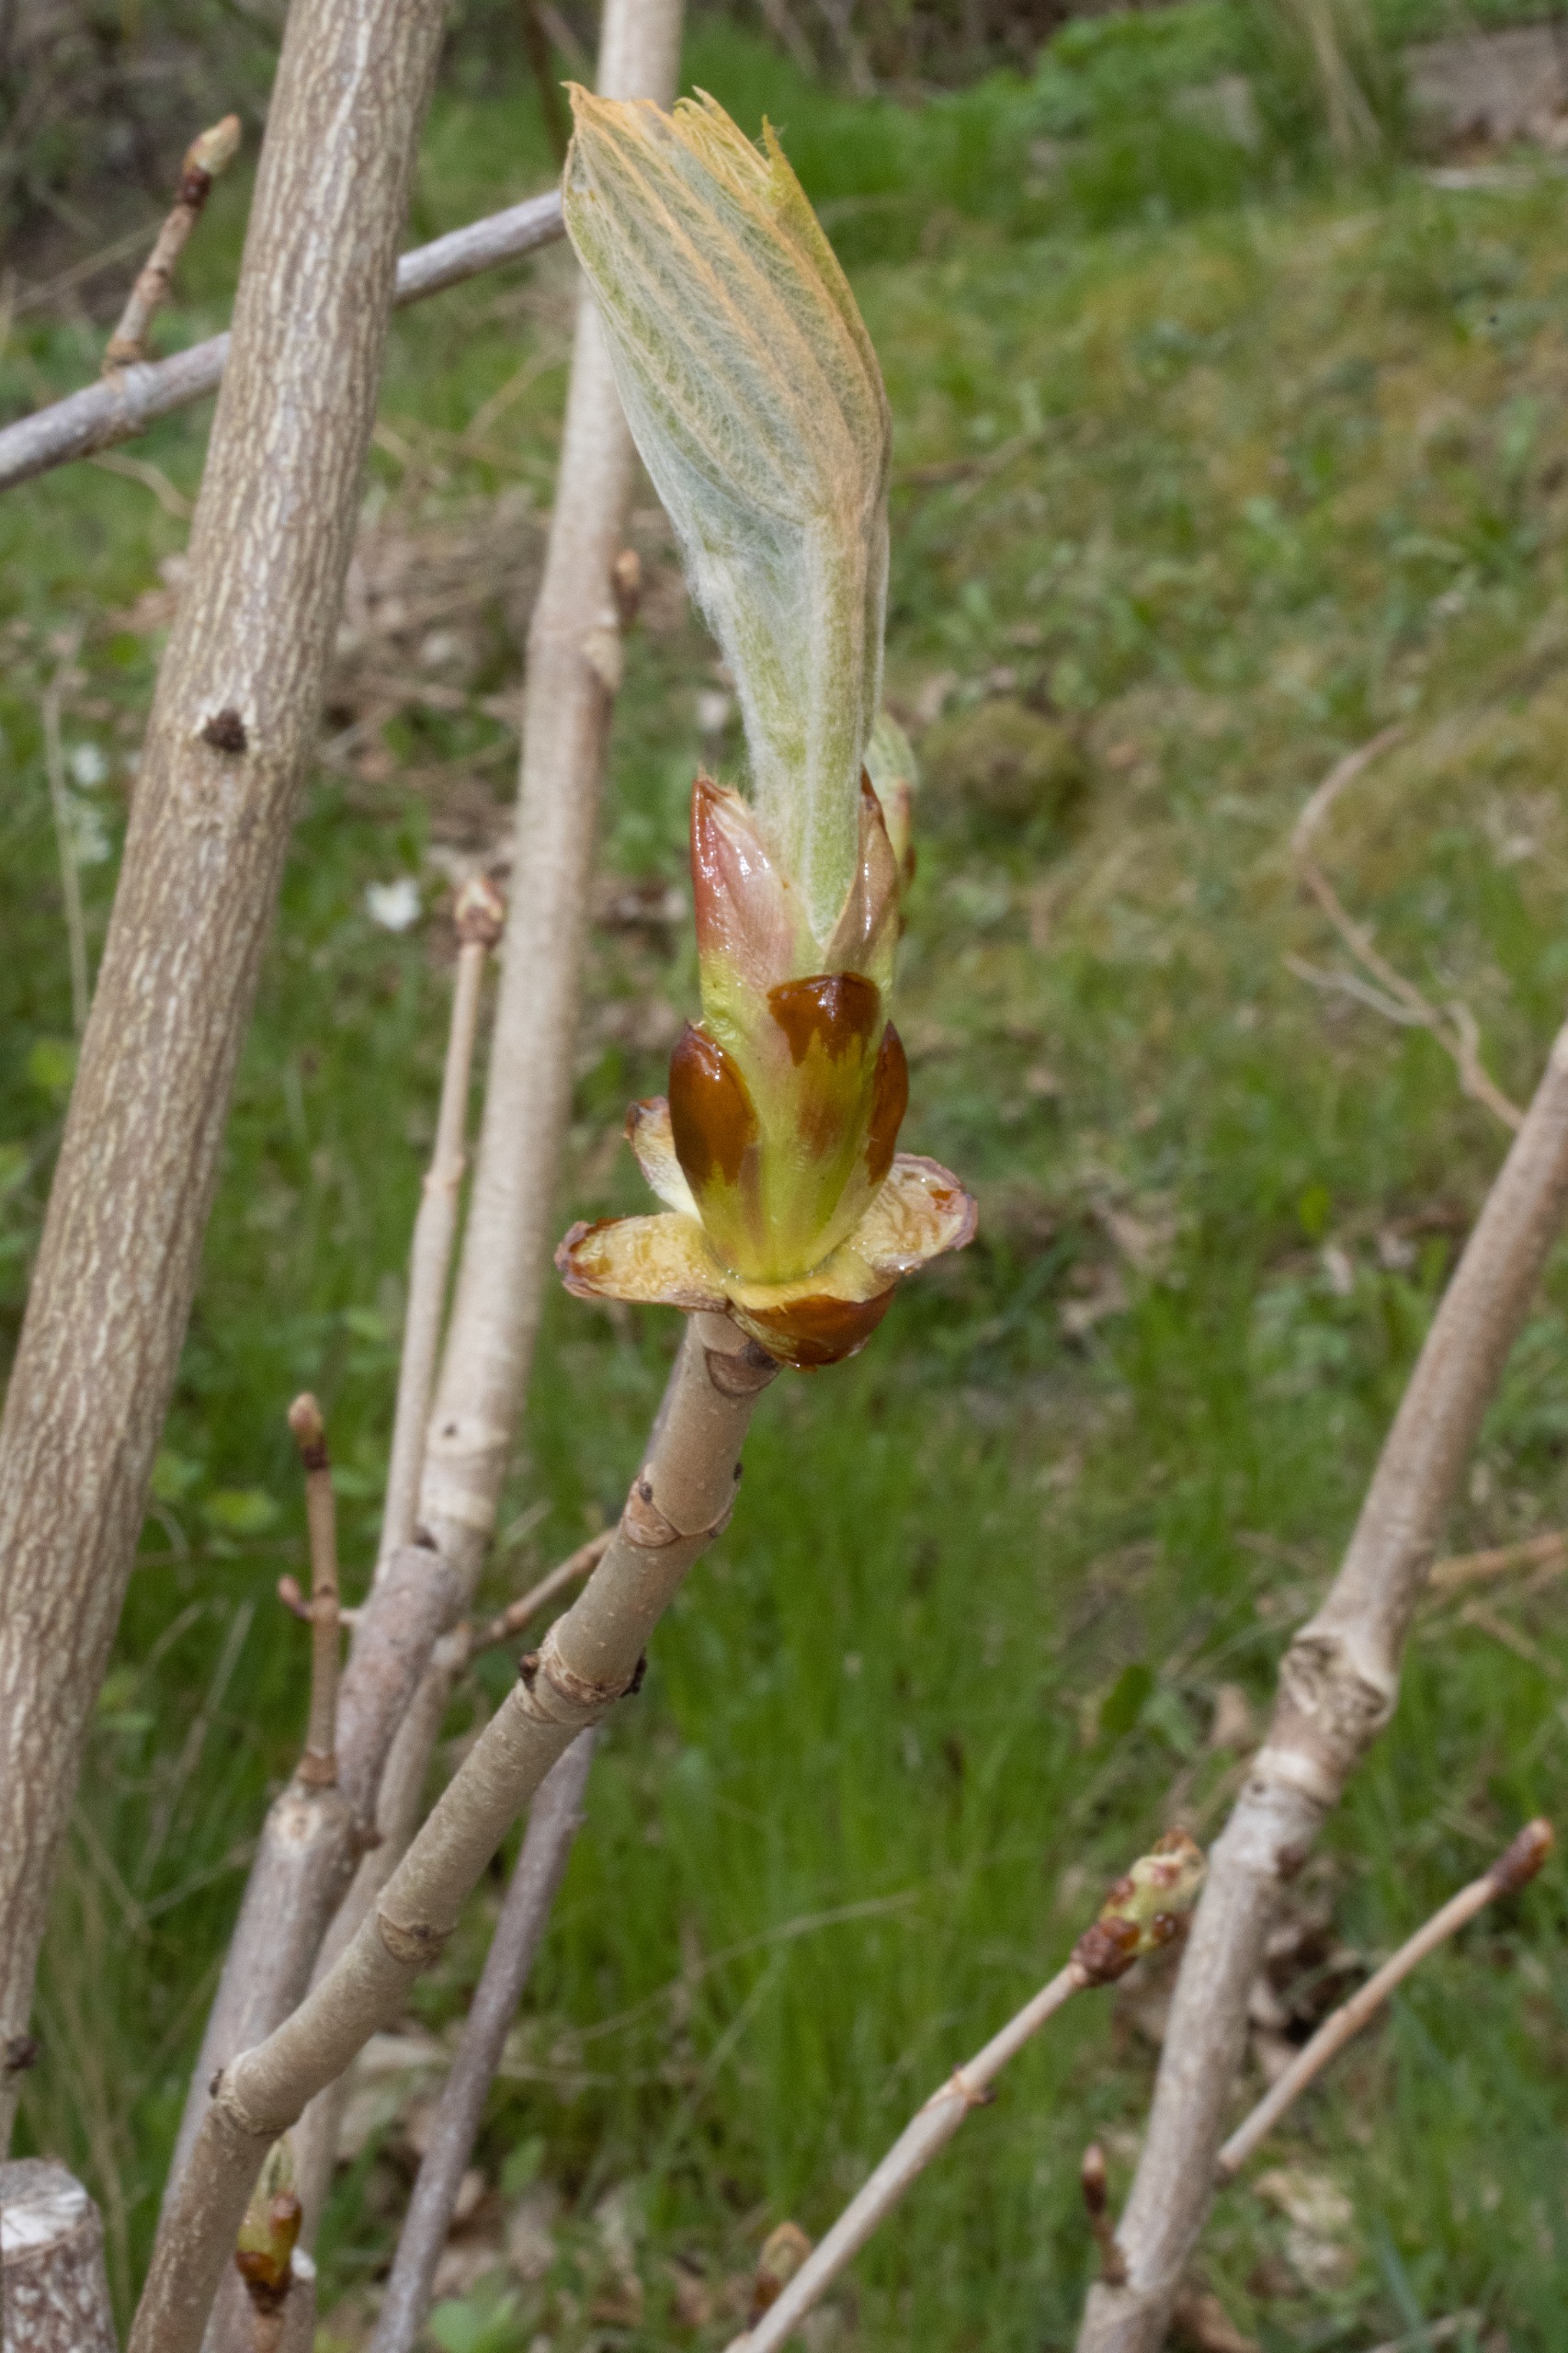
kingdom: Plantae
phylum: Tracheophyta
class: Magnoliopsida
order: Sapindales
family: Sapindaceae
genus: Aesculus
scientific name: Aesculus hippocastanum
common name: Hestekastanie
